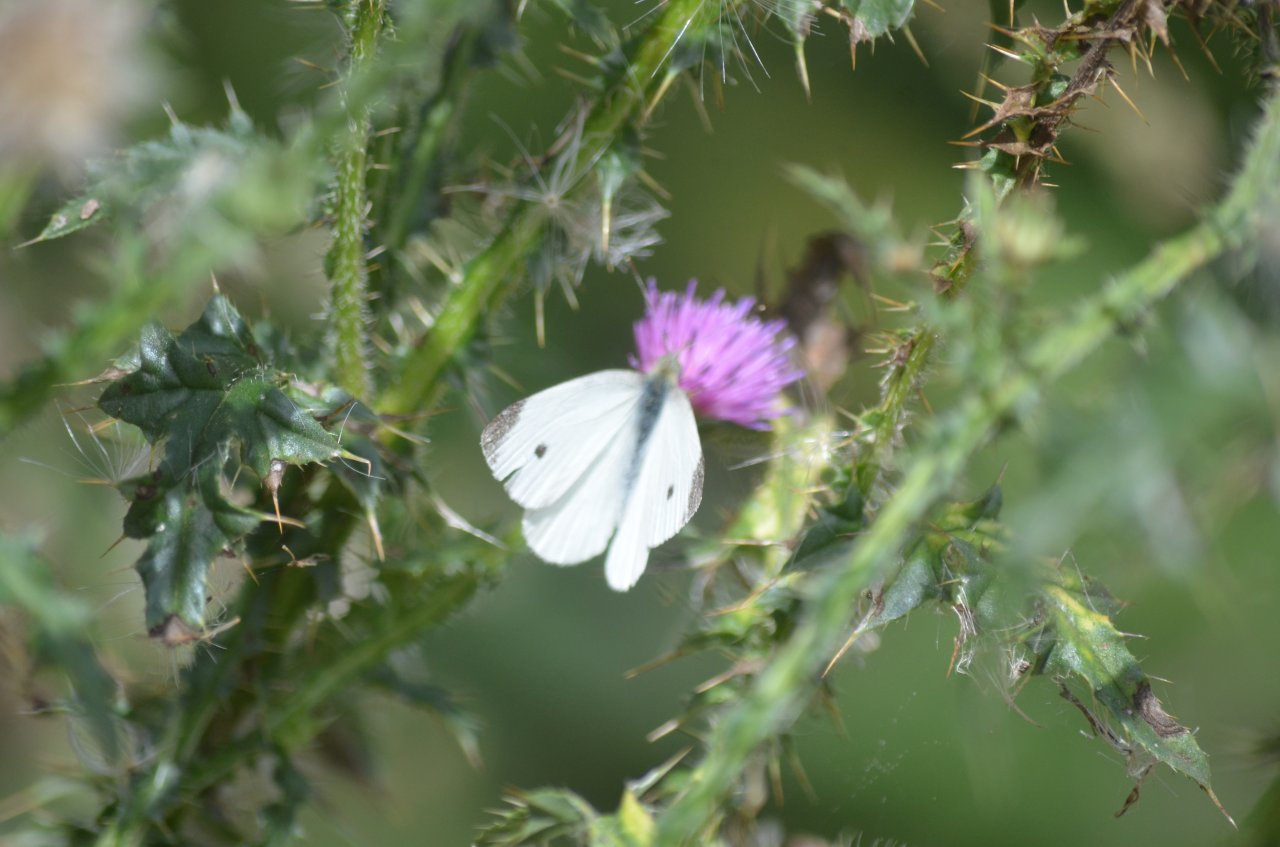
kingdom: Animalia
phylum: Arthropoda
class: Insecta
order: Lepidoptera
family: Pieridae
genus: Pieris
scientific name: Pieris rapae
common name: Cabbage White
